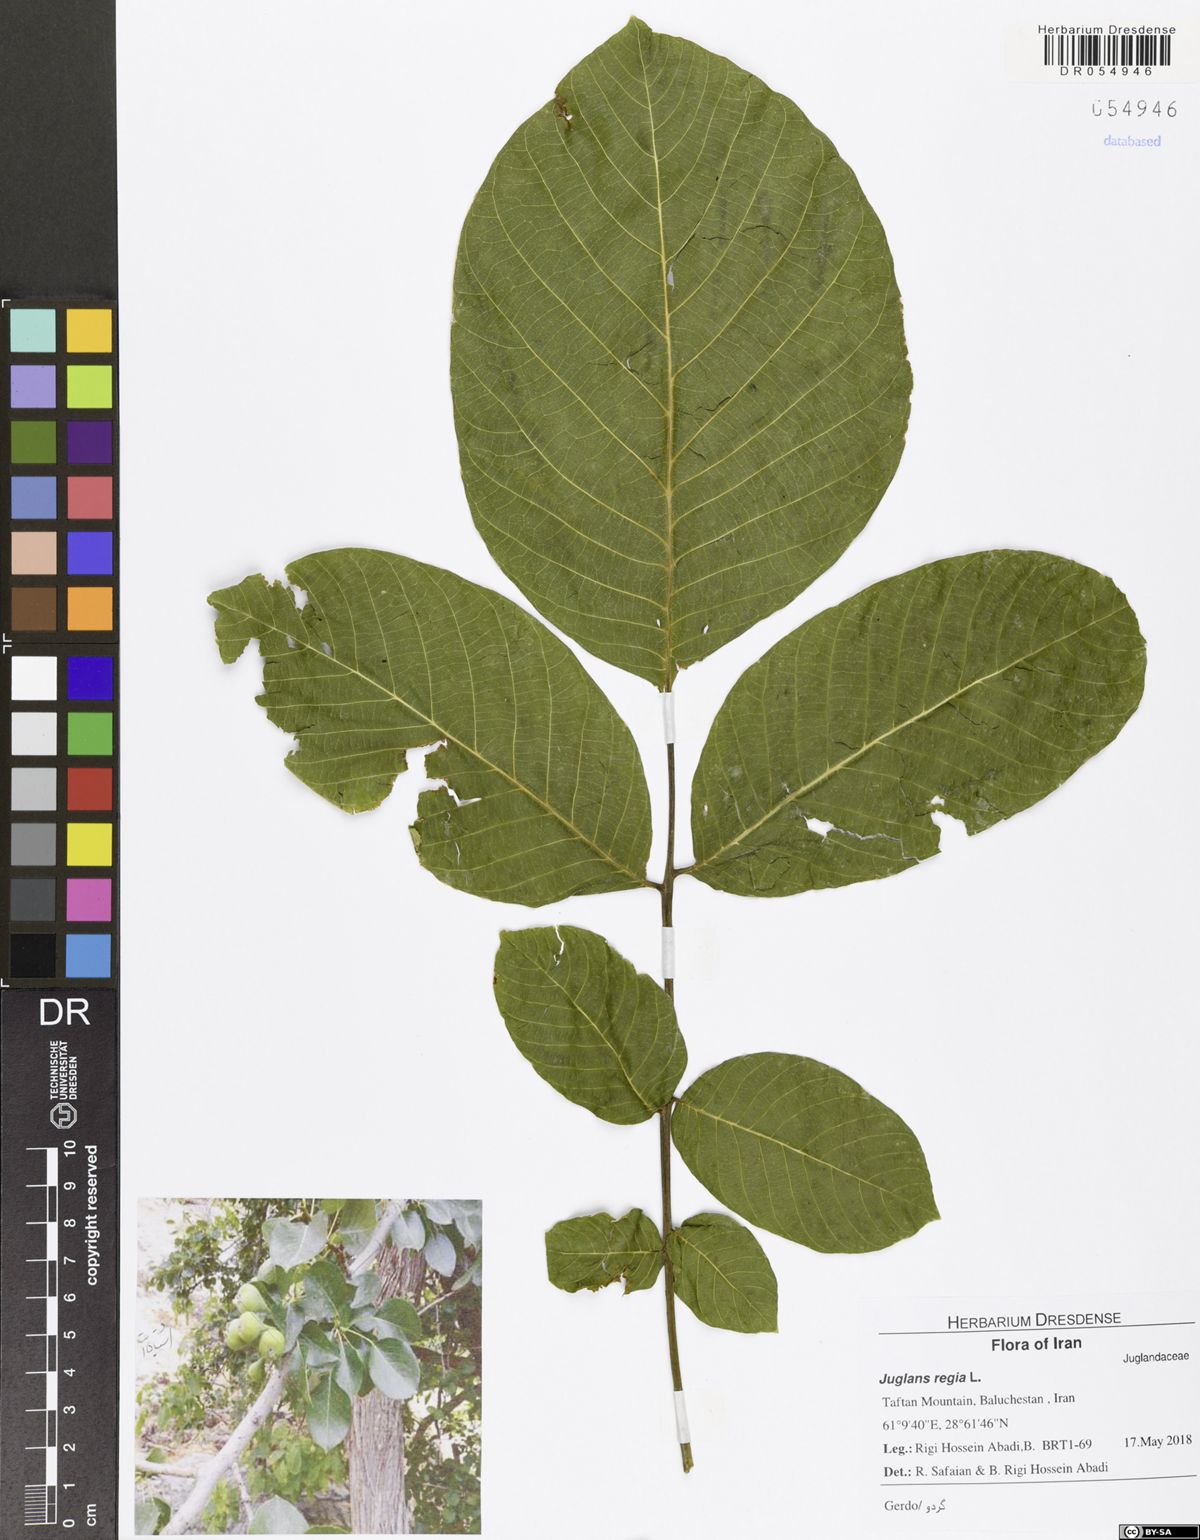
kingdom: Plantae
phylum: Tracheophyta
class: Magnoliopsida
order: Fagales
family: Juglandaceae
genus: Juglans
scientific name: Juglans regia
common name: Walnut
